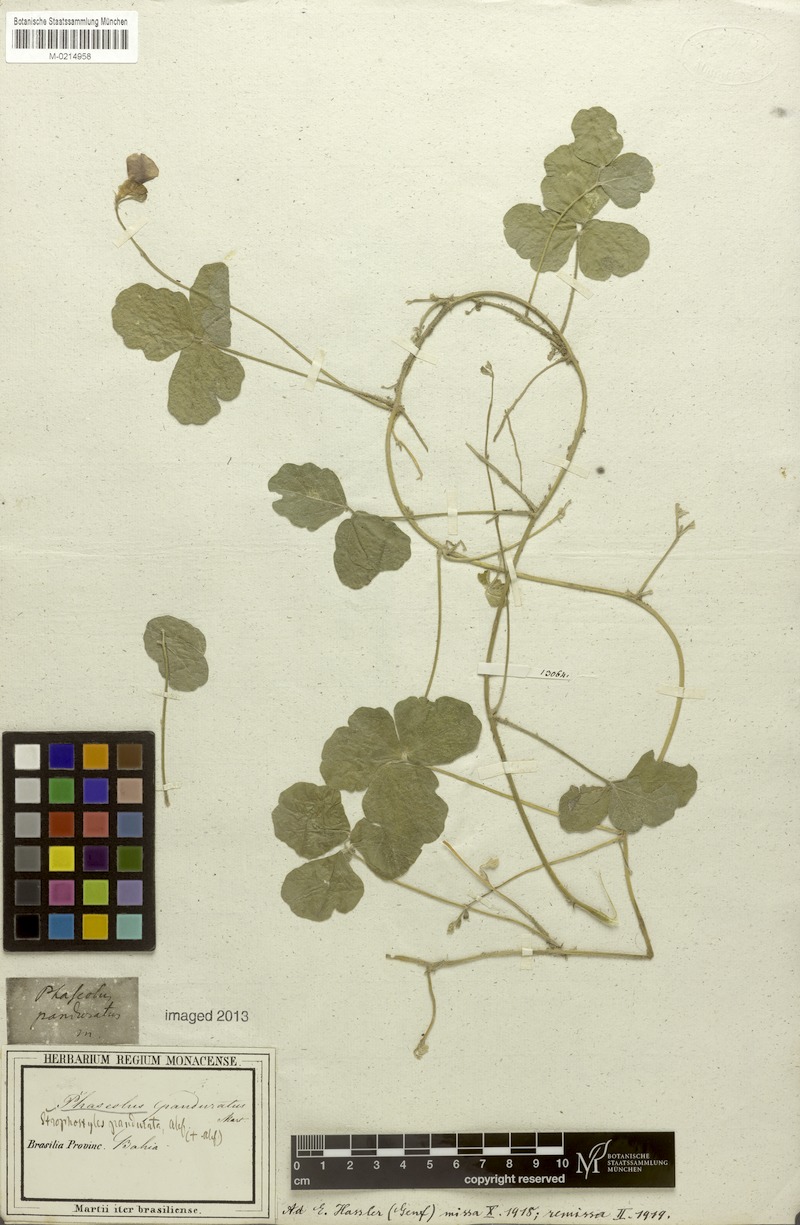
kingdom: Plantae
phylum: Tracheophyta
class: Magnoliopsida
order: Fabales
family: Fabaceae
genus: Macroptilium
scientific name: Macroptilium panduratum
